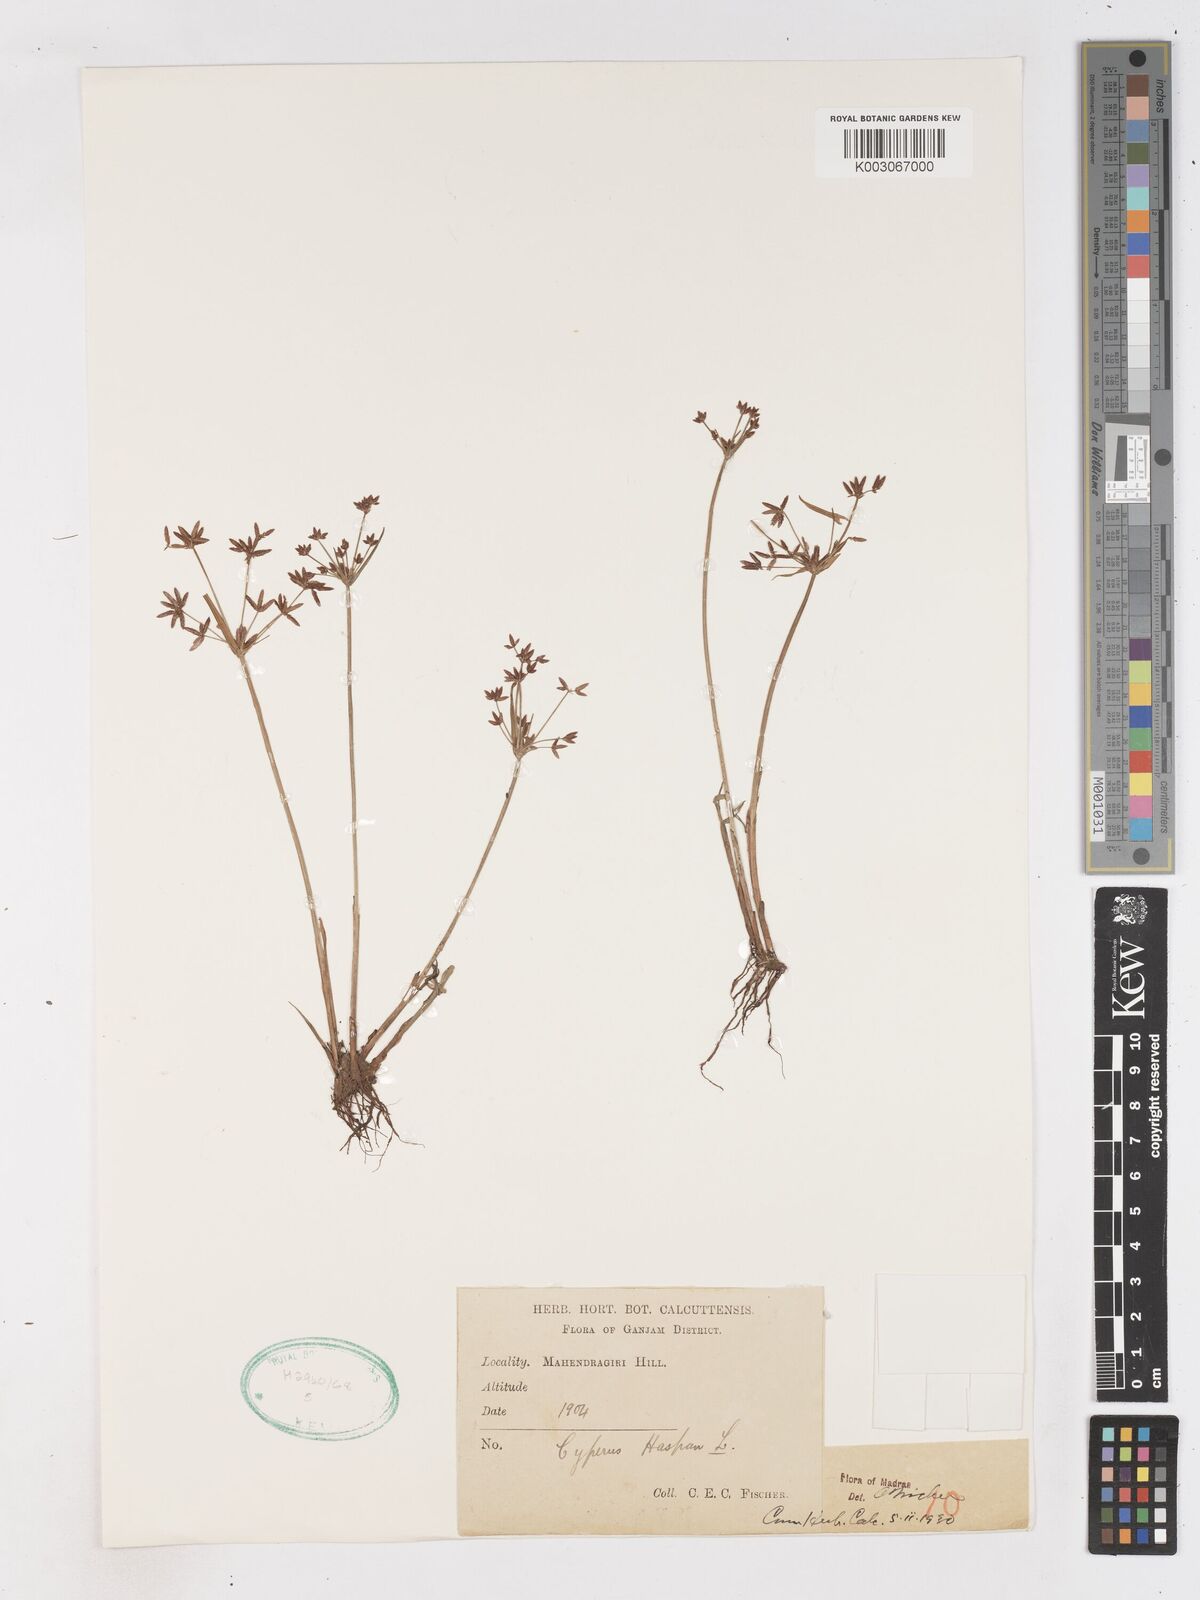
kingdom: Plantae
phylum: Tracheophyta
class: Liliopsida
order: Poales
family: Cyperaceae
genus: Cyperus
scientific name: Cyperus haspan
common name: Haspan flatsedge
